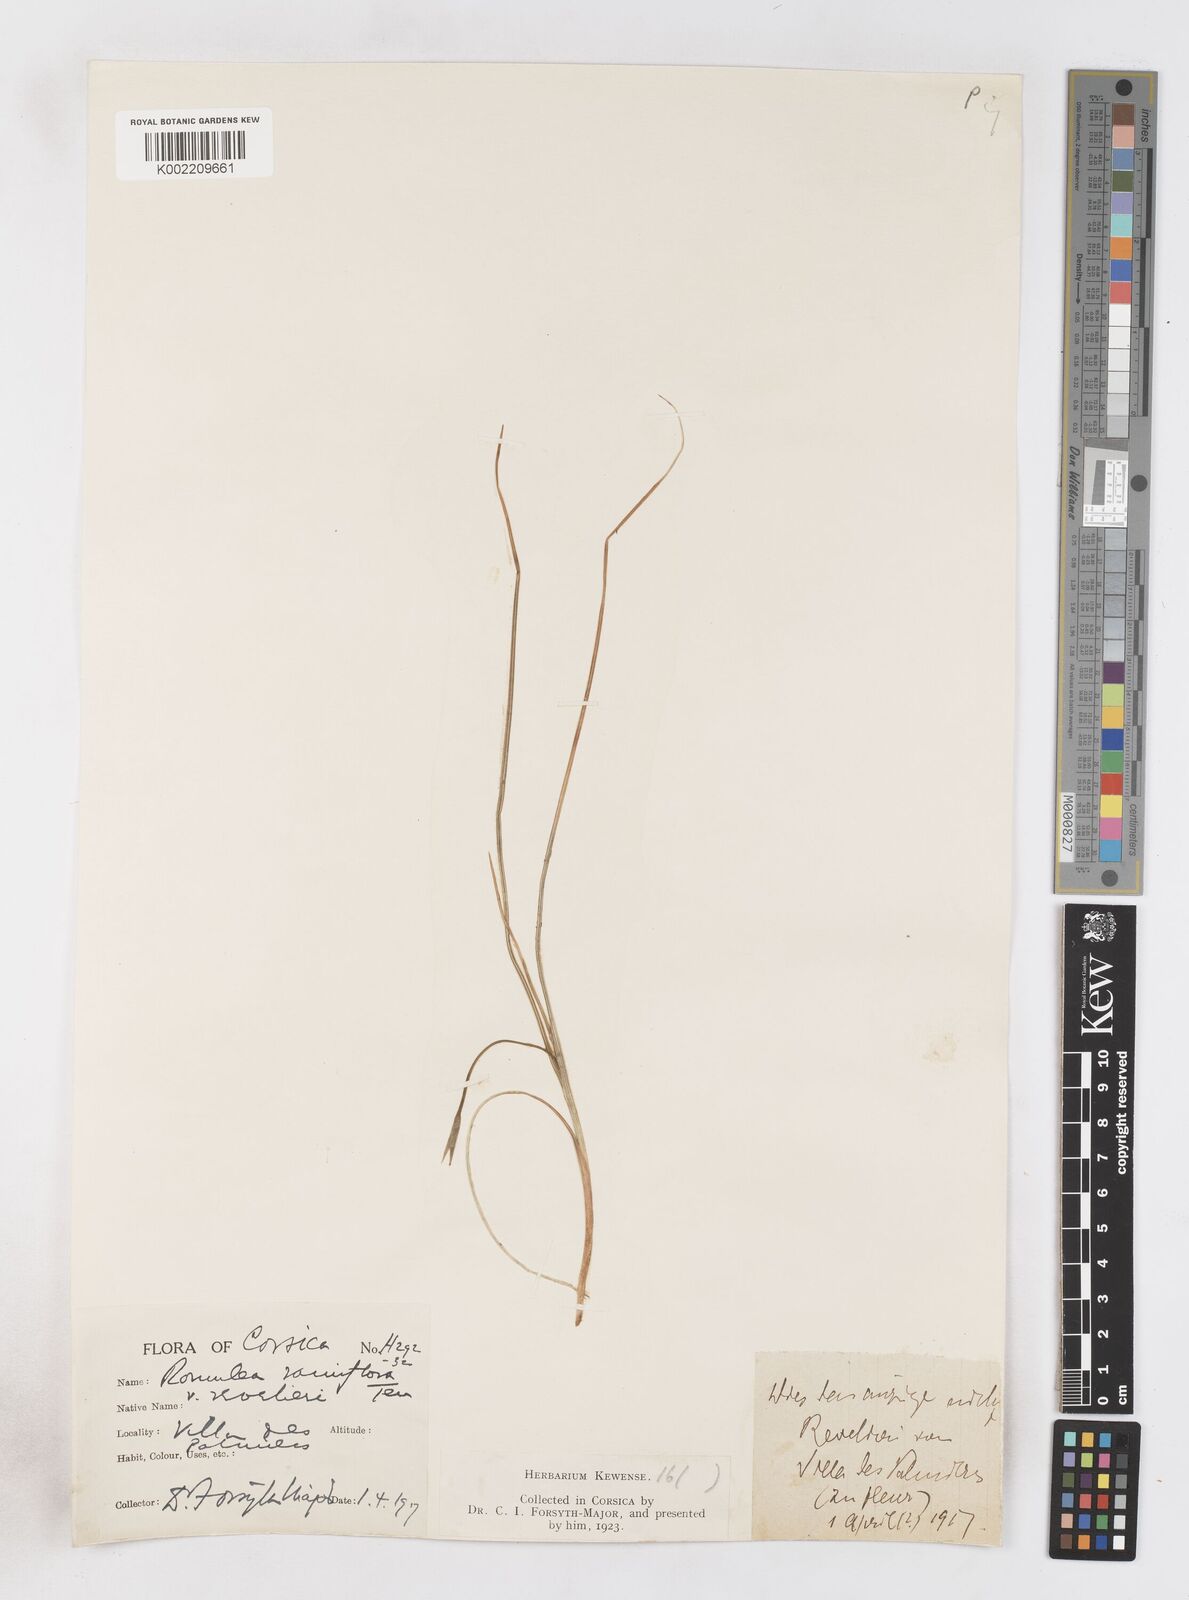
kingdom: Plantae
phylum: Tracheophyta
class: Liliopsida
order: Asparagales
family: Iridaceae
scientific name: Iridaceae
